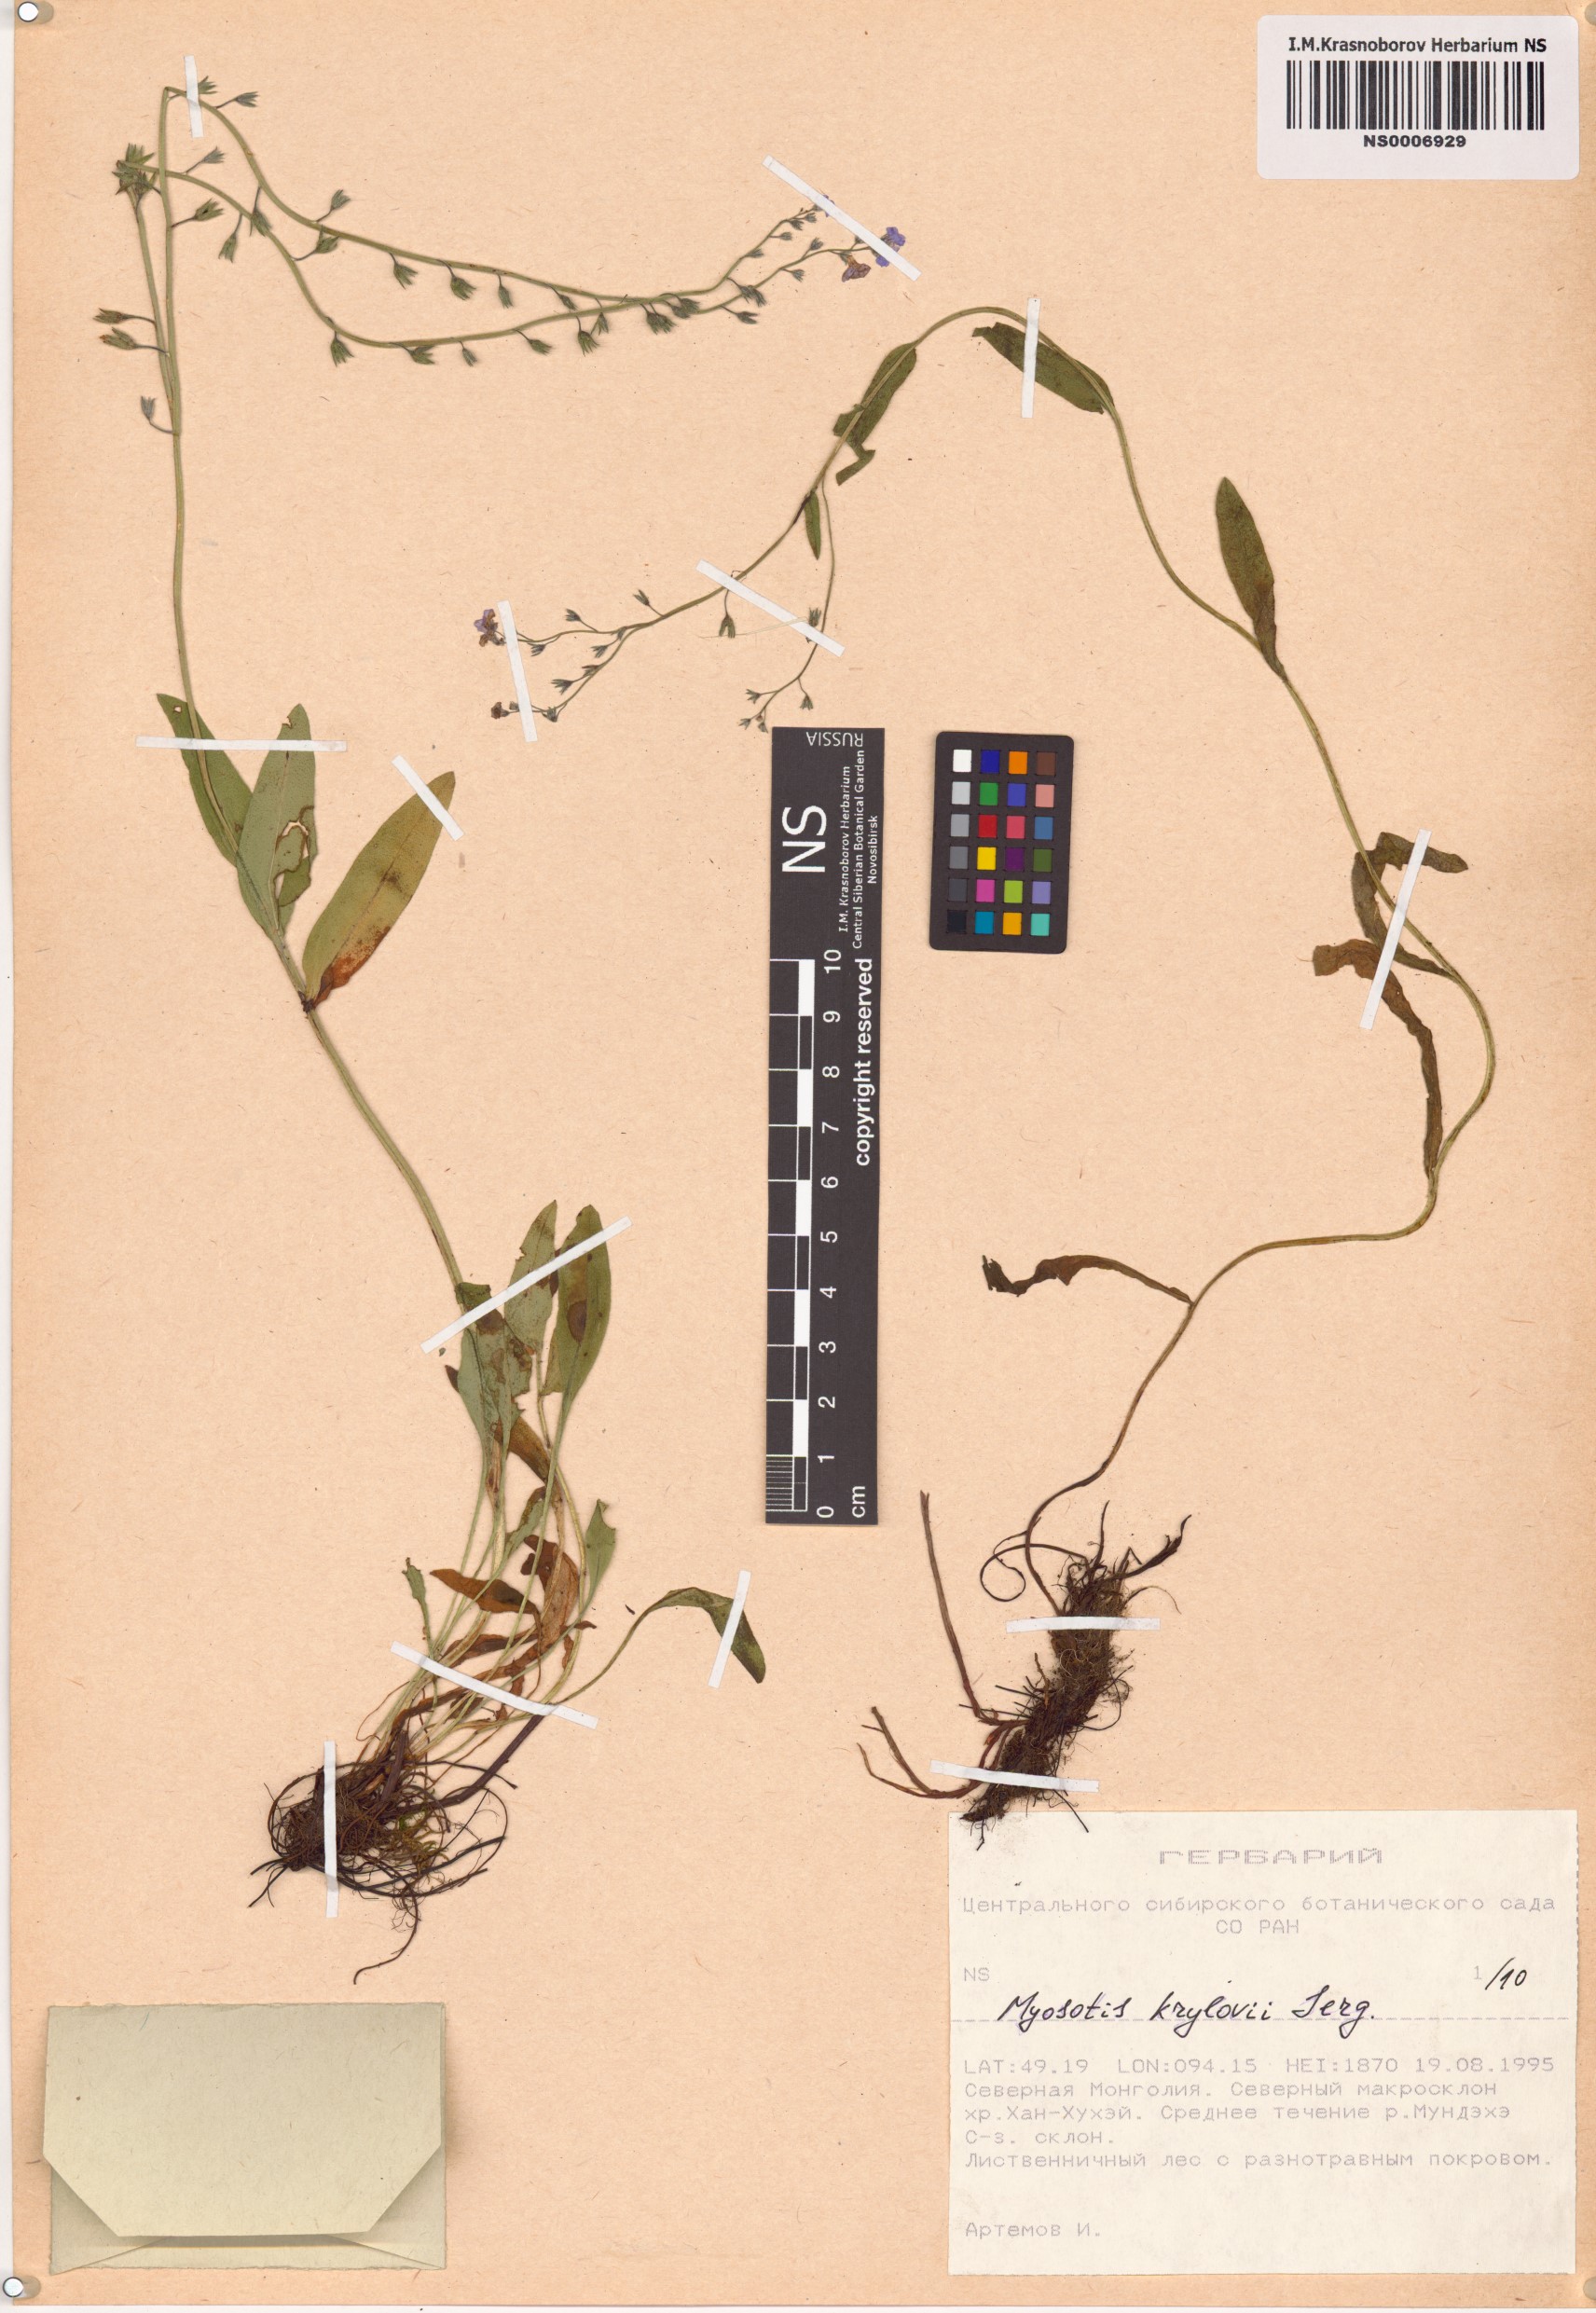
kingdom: Plantae
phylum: Tracheophyta
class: Magnoliopsida
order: Boraginales
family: Boraginaceae
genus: Myosotis
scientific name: Myosotis krylovii
